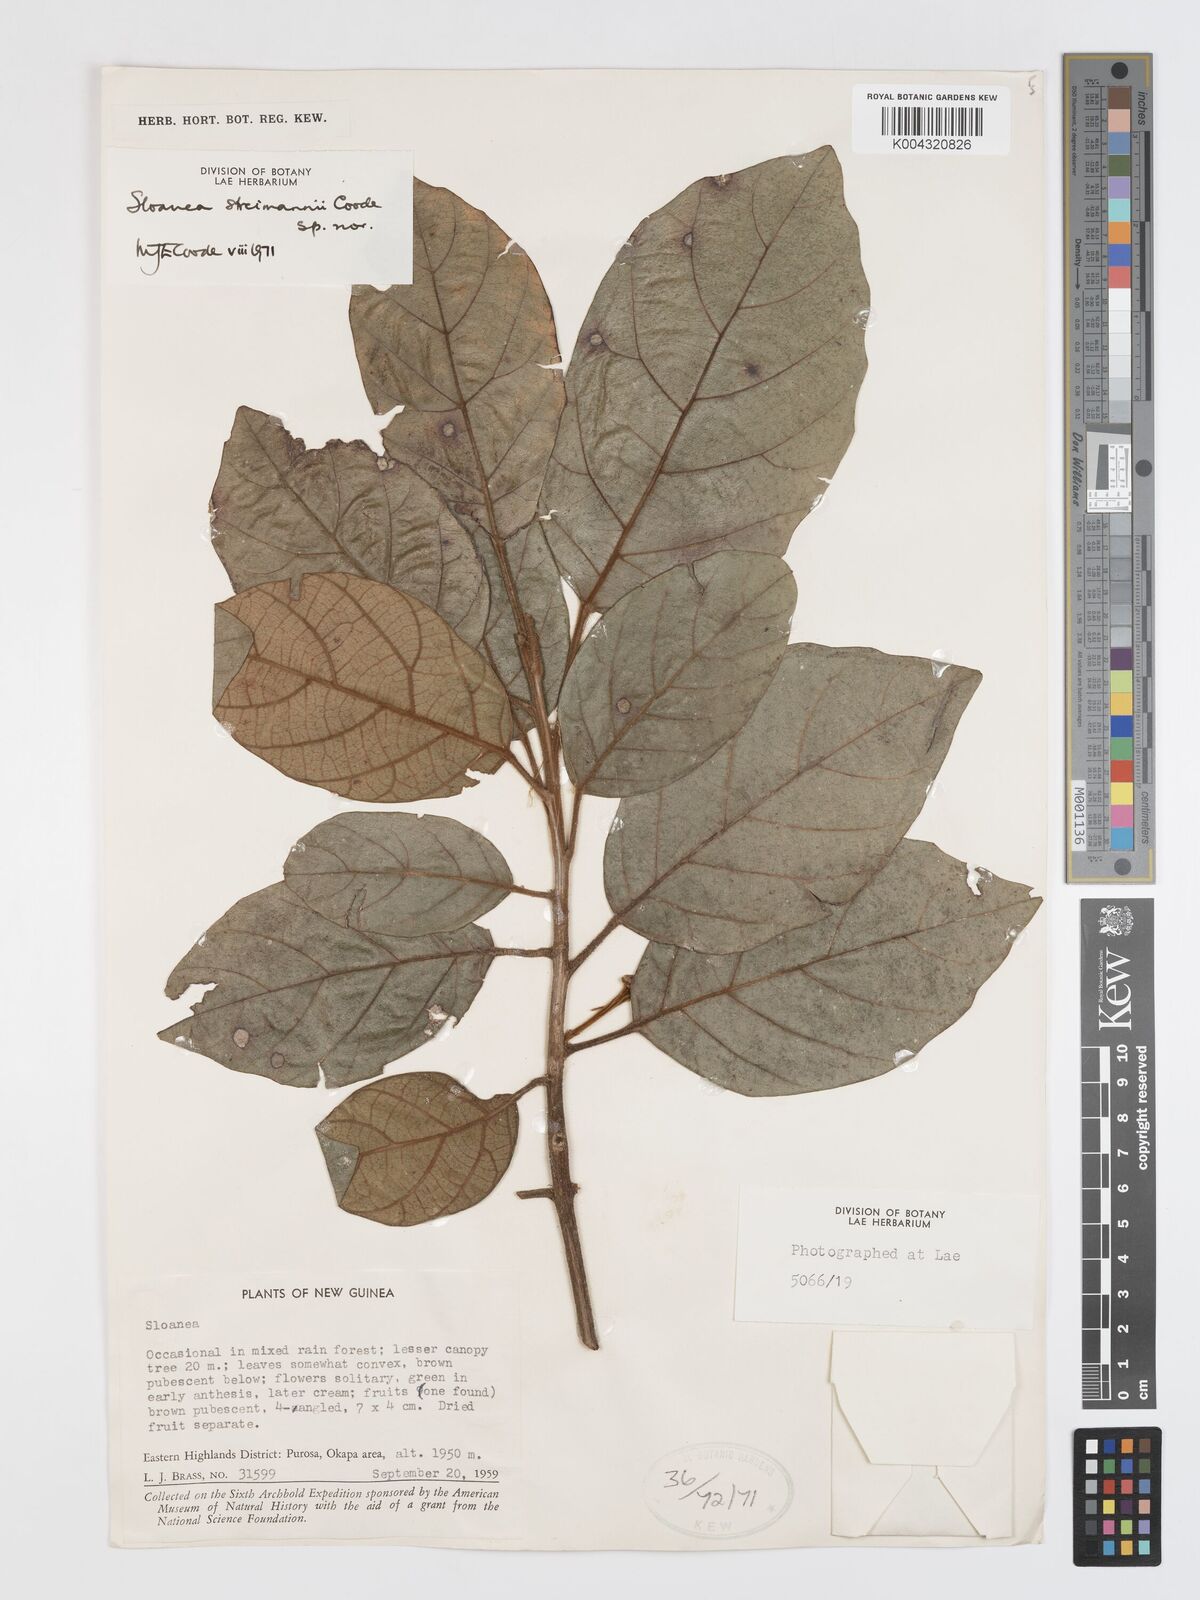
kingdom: Plantae
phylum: Tracheophyta
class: Magnoliopsida
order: Oxalidales
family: Elaeocarpaceae
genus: Sloanea
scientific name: Sloanea streimannii
